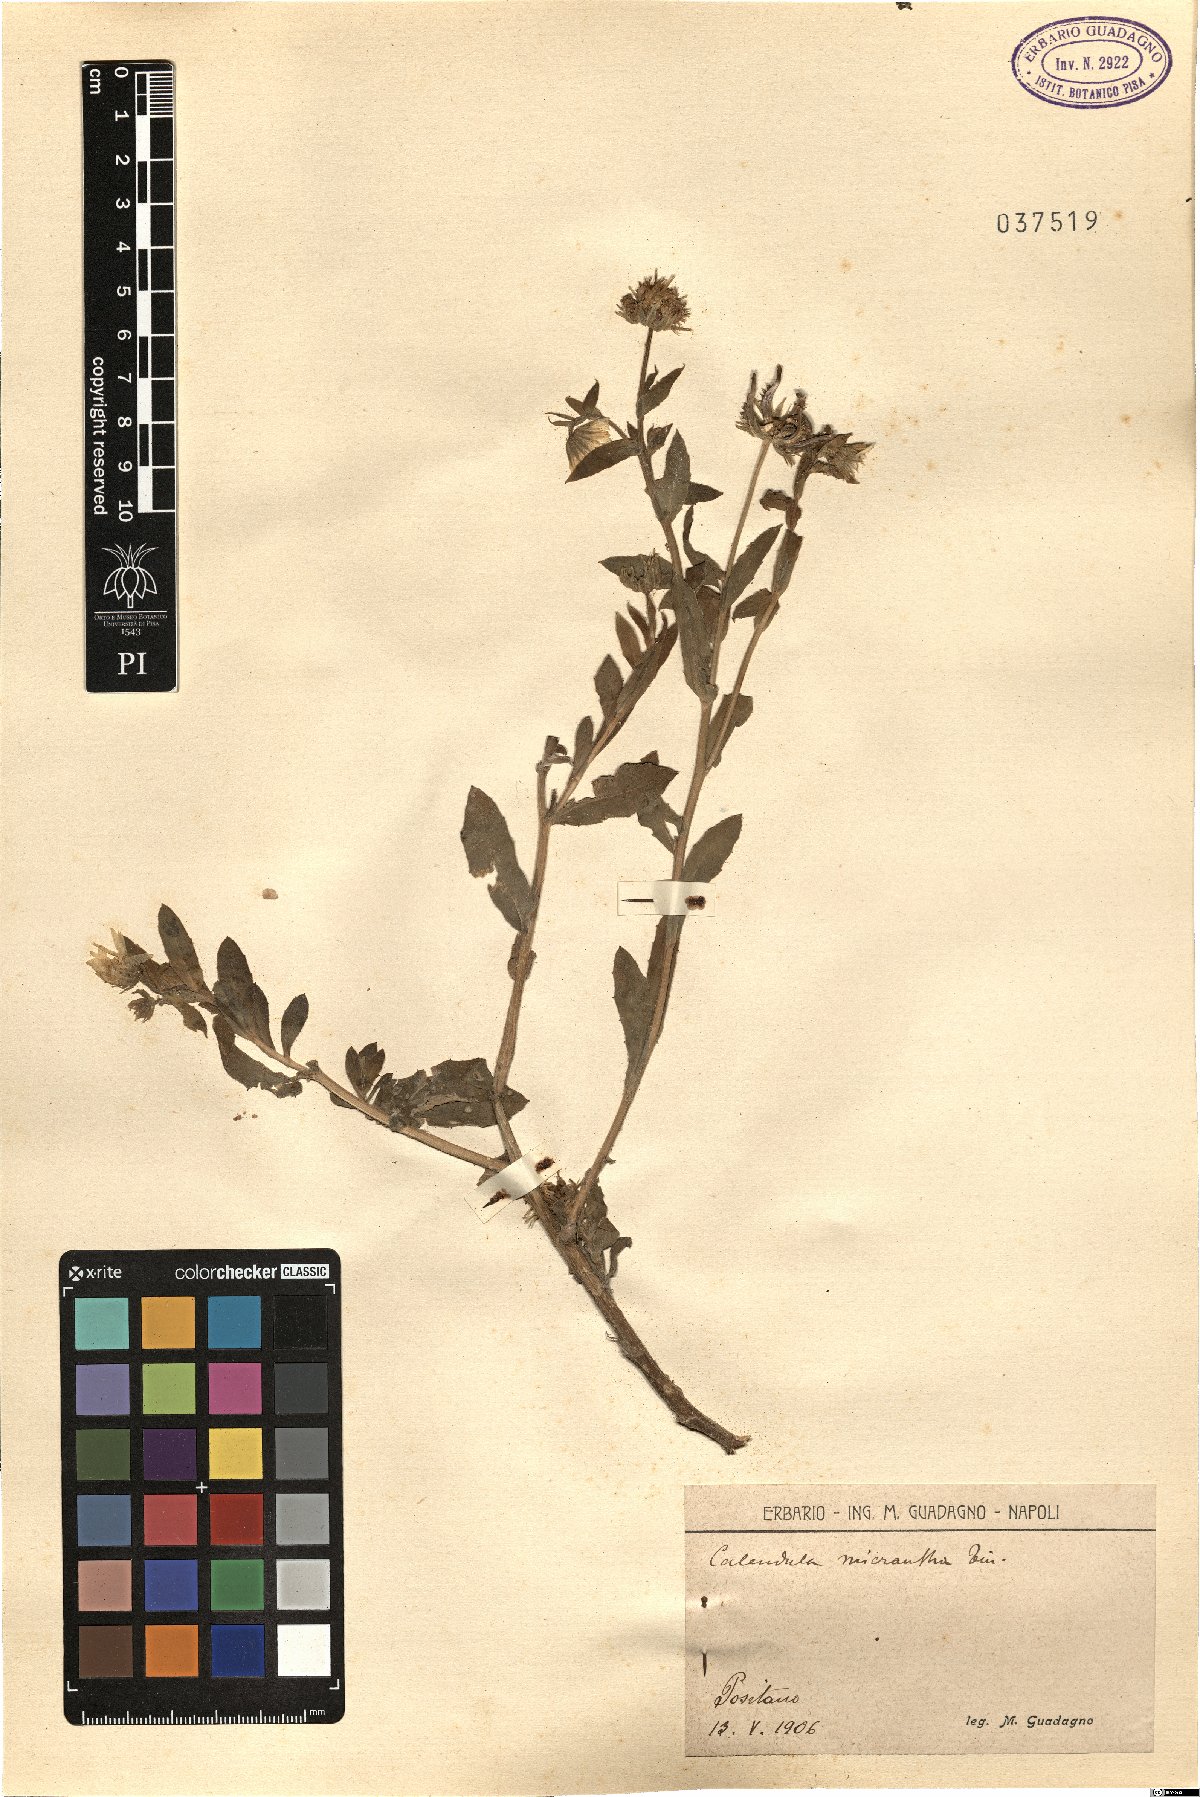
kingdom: Plantae
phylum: Tracheophyta
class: Magnoliopsida
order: Asterales
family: Asteraceae
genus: Calendula
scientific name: Calendula arvensis
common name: Field marigold
